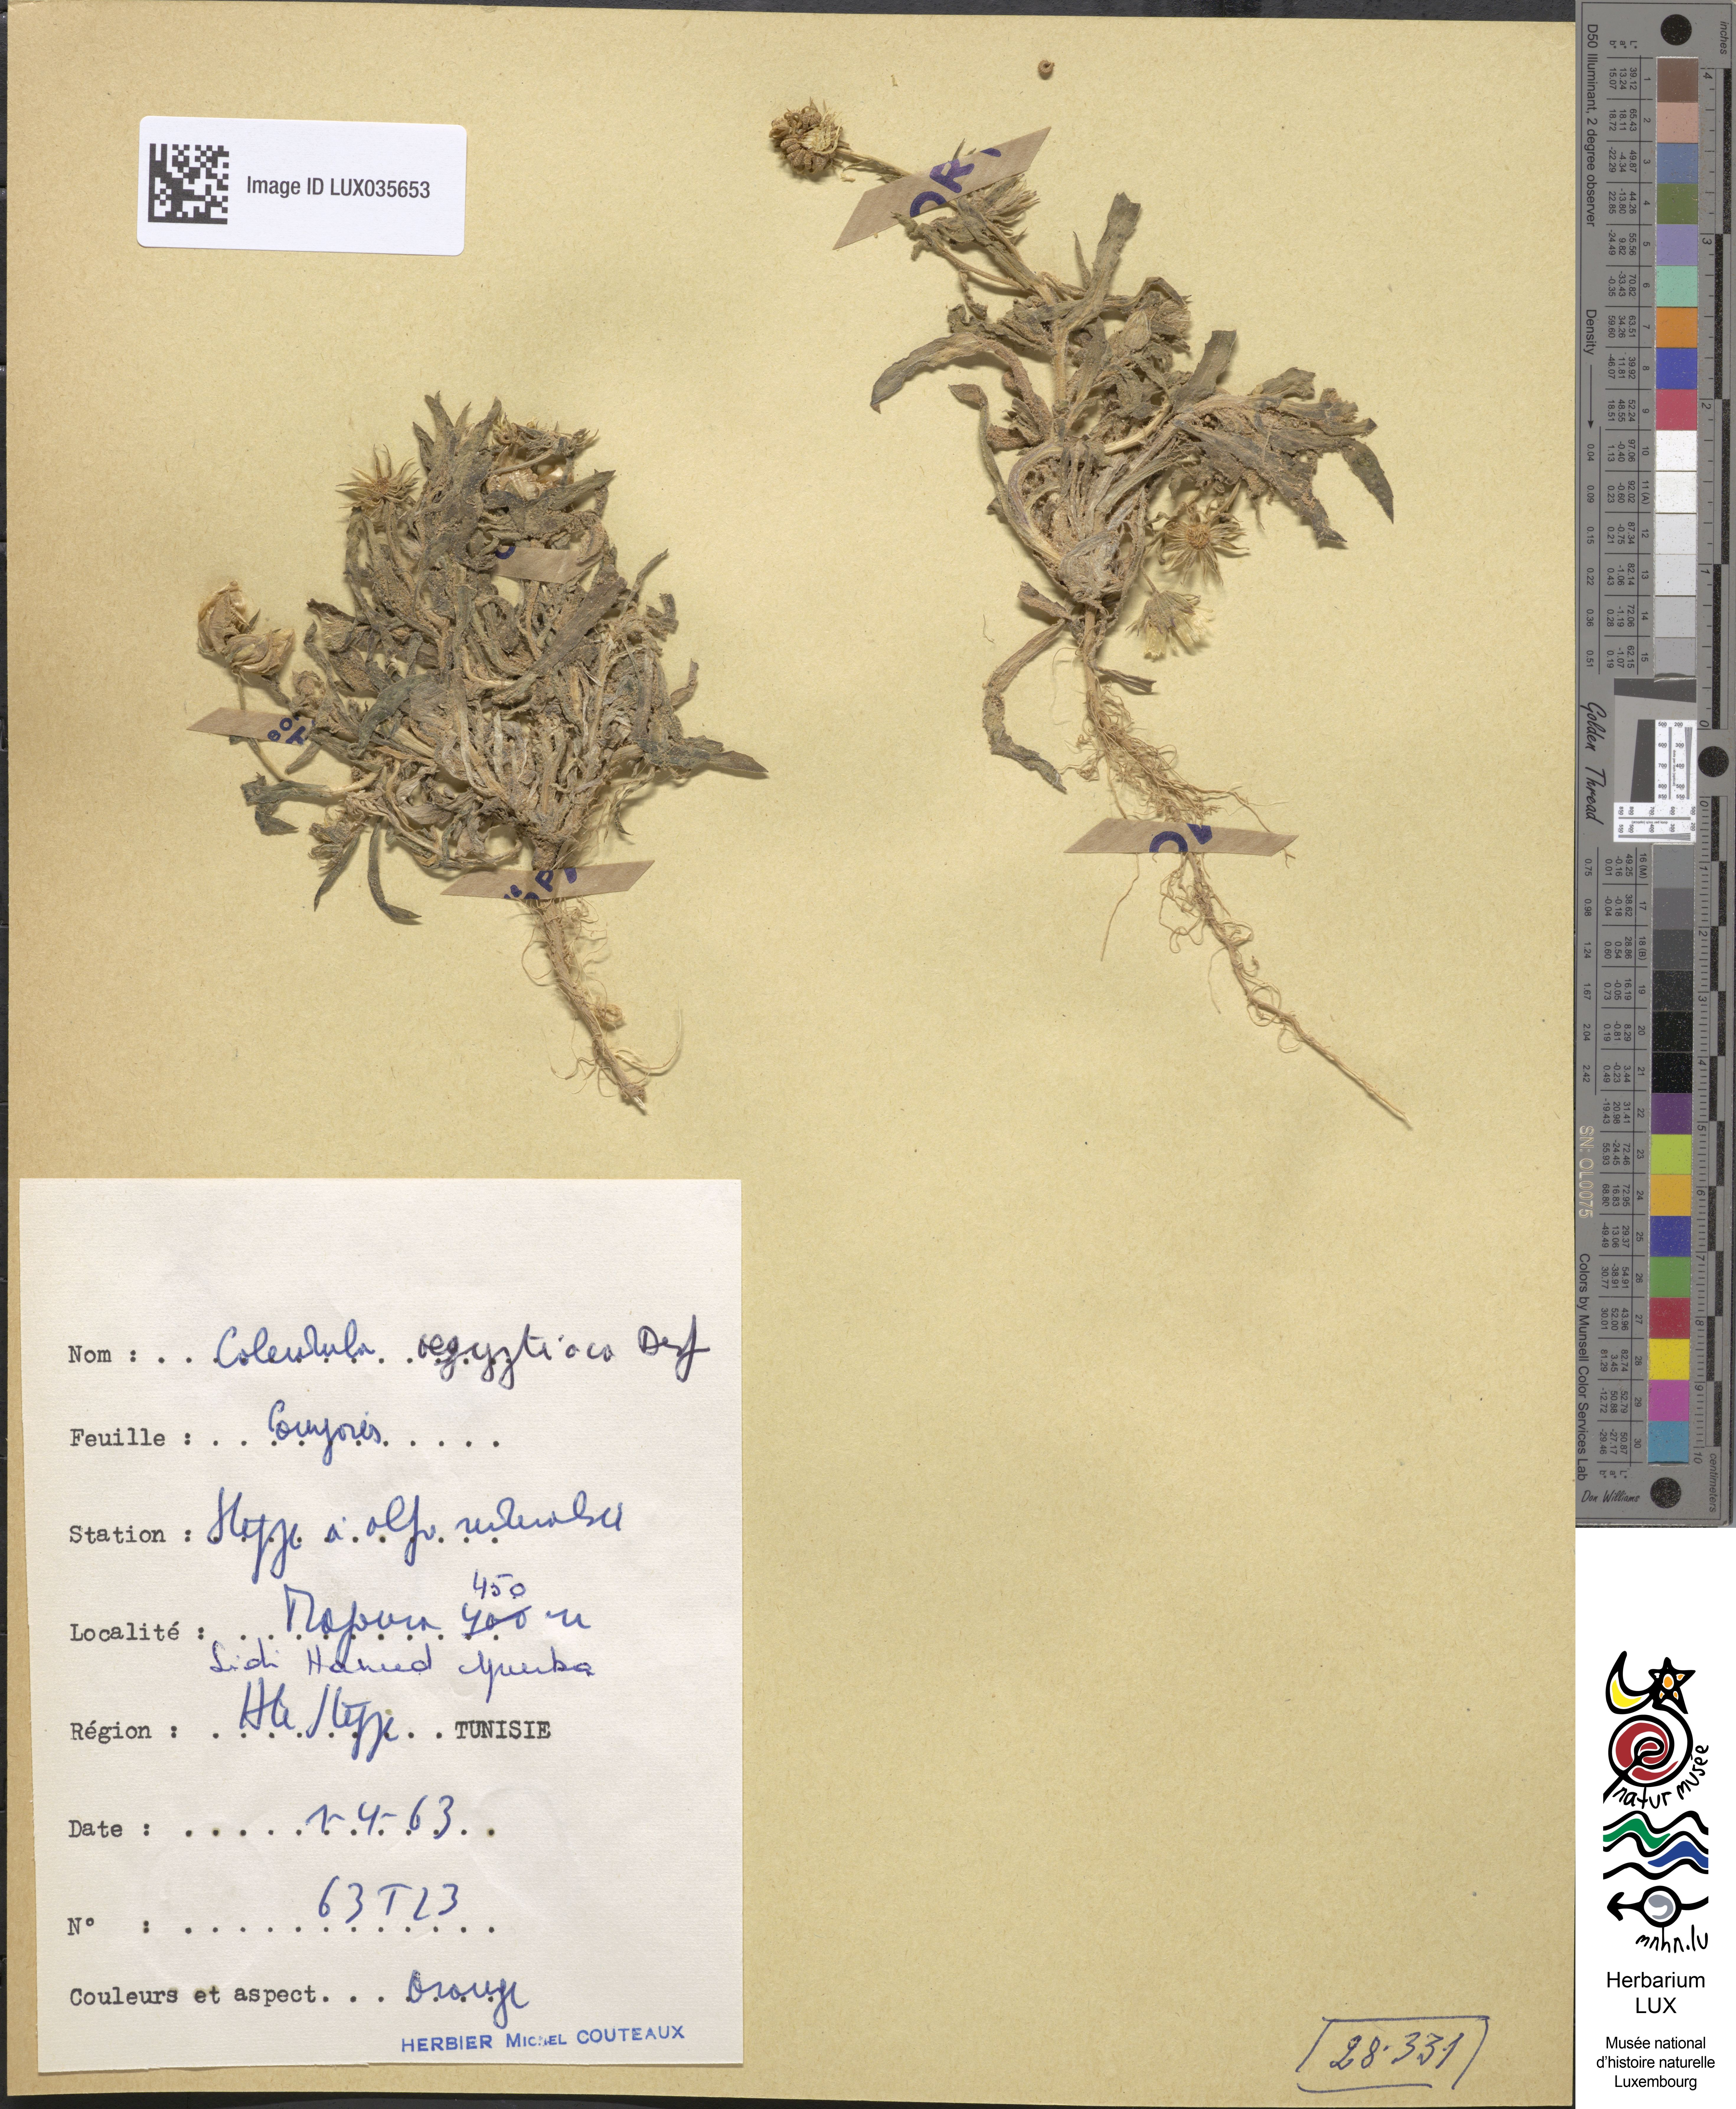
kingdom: Plantae
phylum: Tracheophyta
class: Magnoliopsida
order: Asterales
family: Asteraceae
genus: Calendula
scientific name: Calendula arvensis
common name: Field marigold
